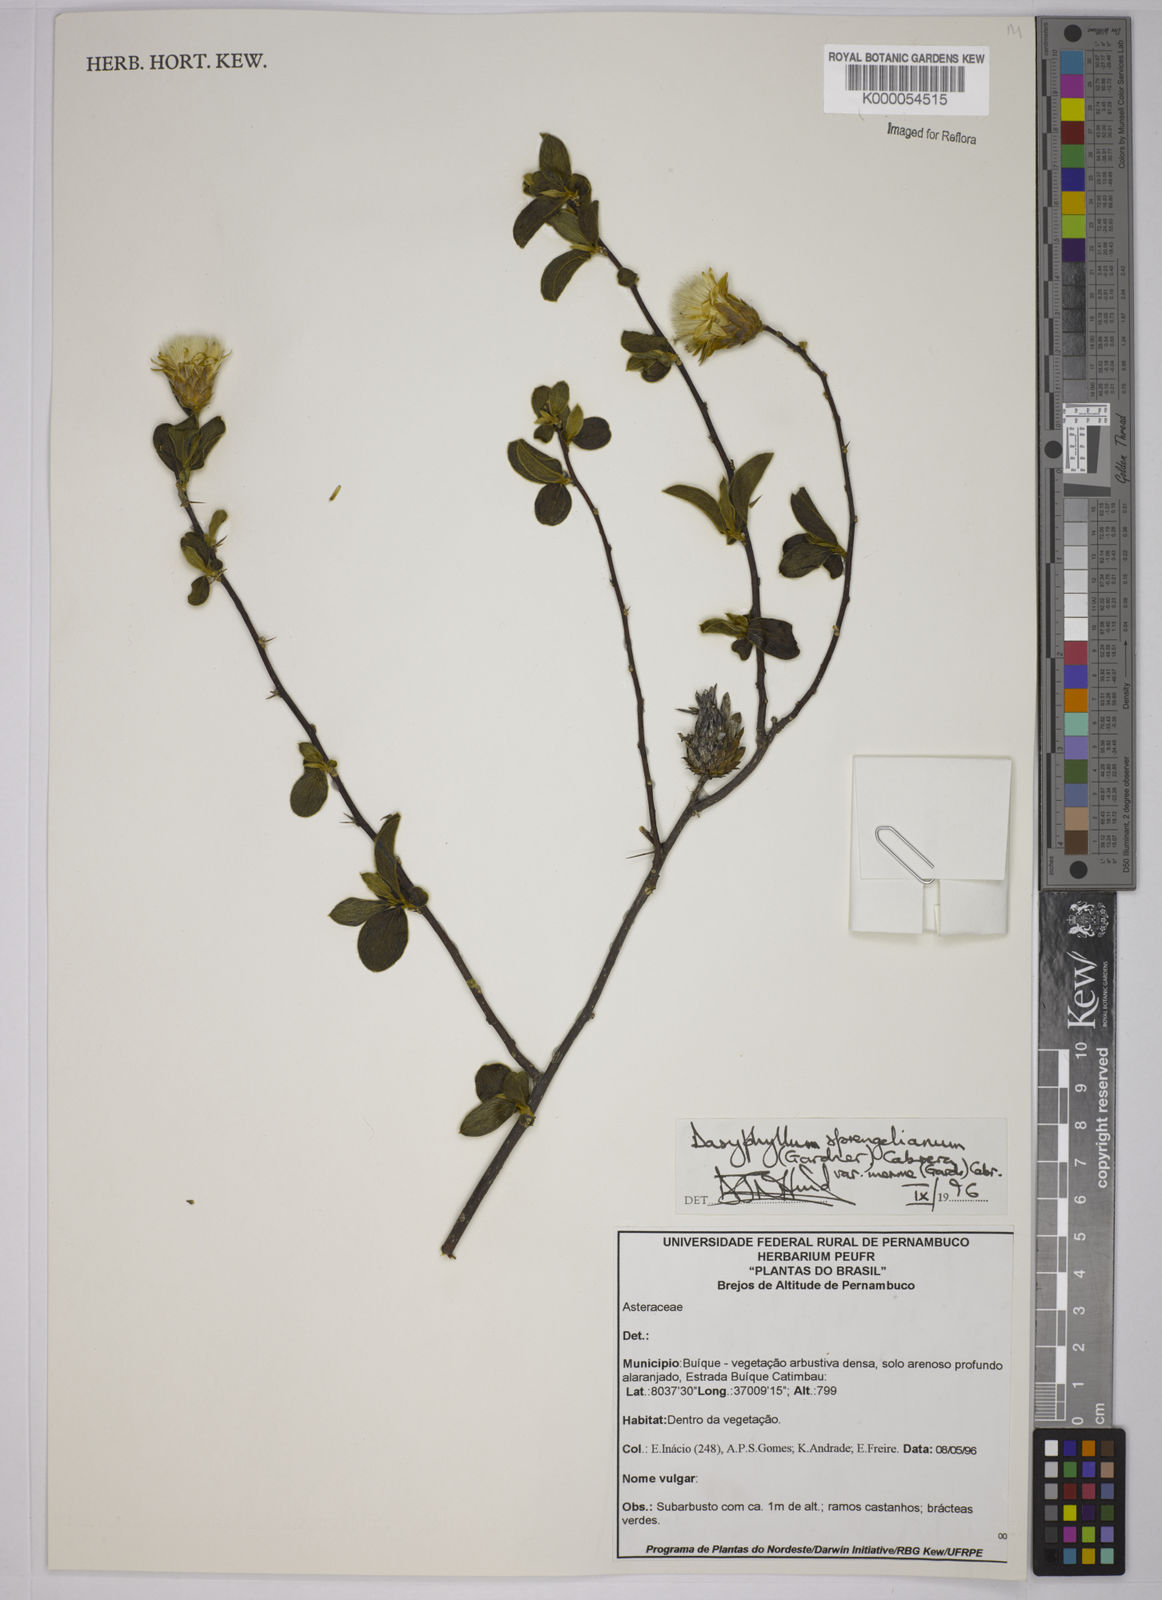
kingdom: Plantae
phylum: Tracheophyta
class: Magnoliopsida
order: Asterales
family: Asteraceae
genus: Dasyphyllum
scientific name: Dasyphyllum sprengelianum
